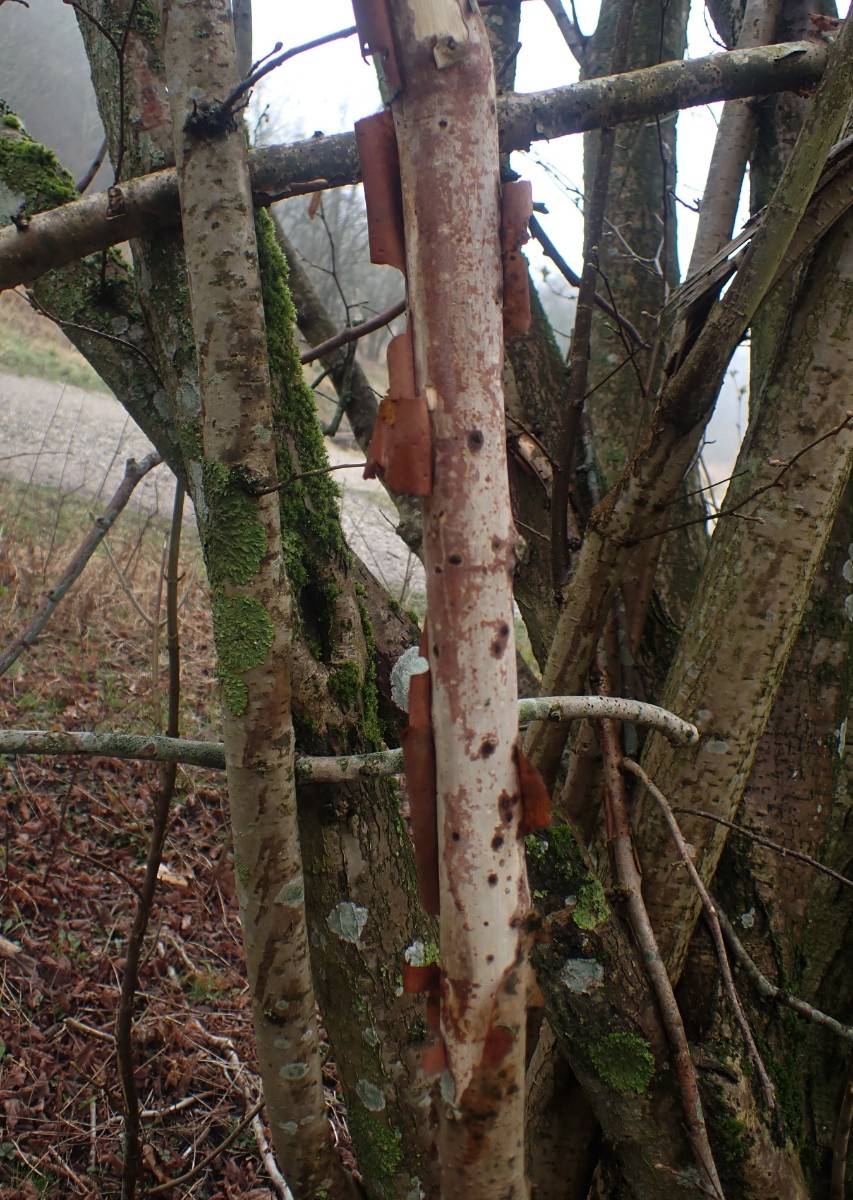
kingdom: Fungi
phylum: Basidiomycota
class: Agaricomycetes
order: Corticiales
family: Vuilleminiaceae
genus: Vuilleminia
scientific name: Vuilleminia coryli
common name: hassel-barksprænger
